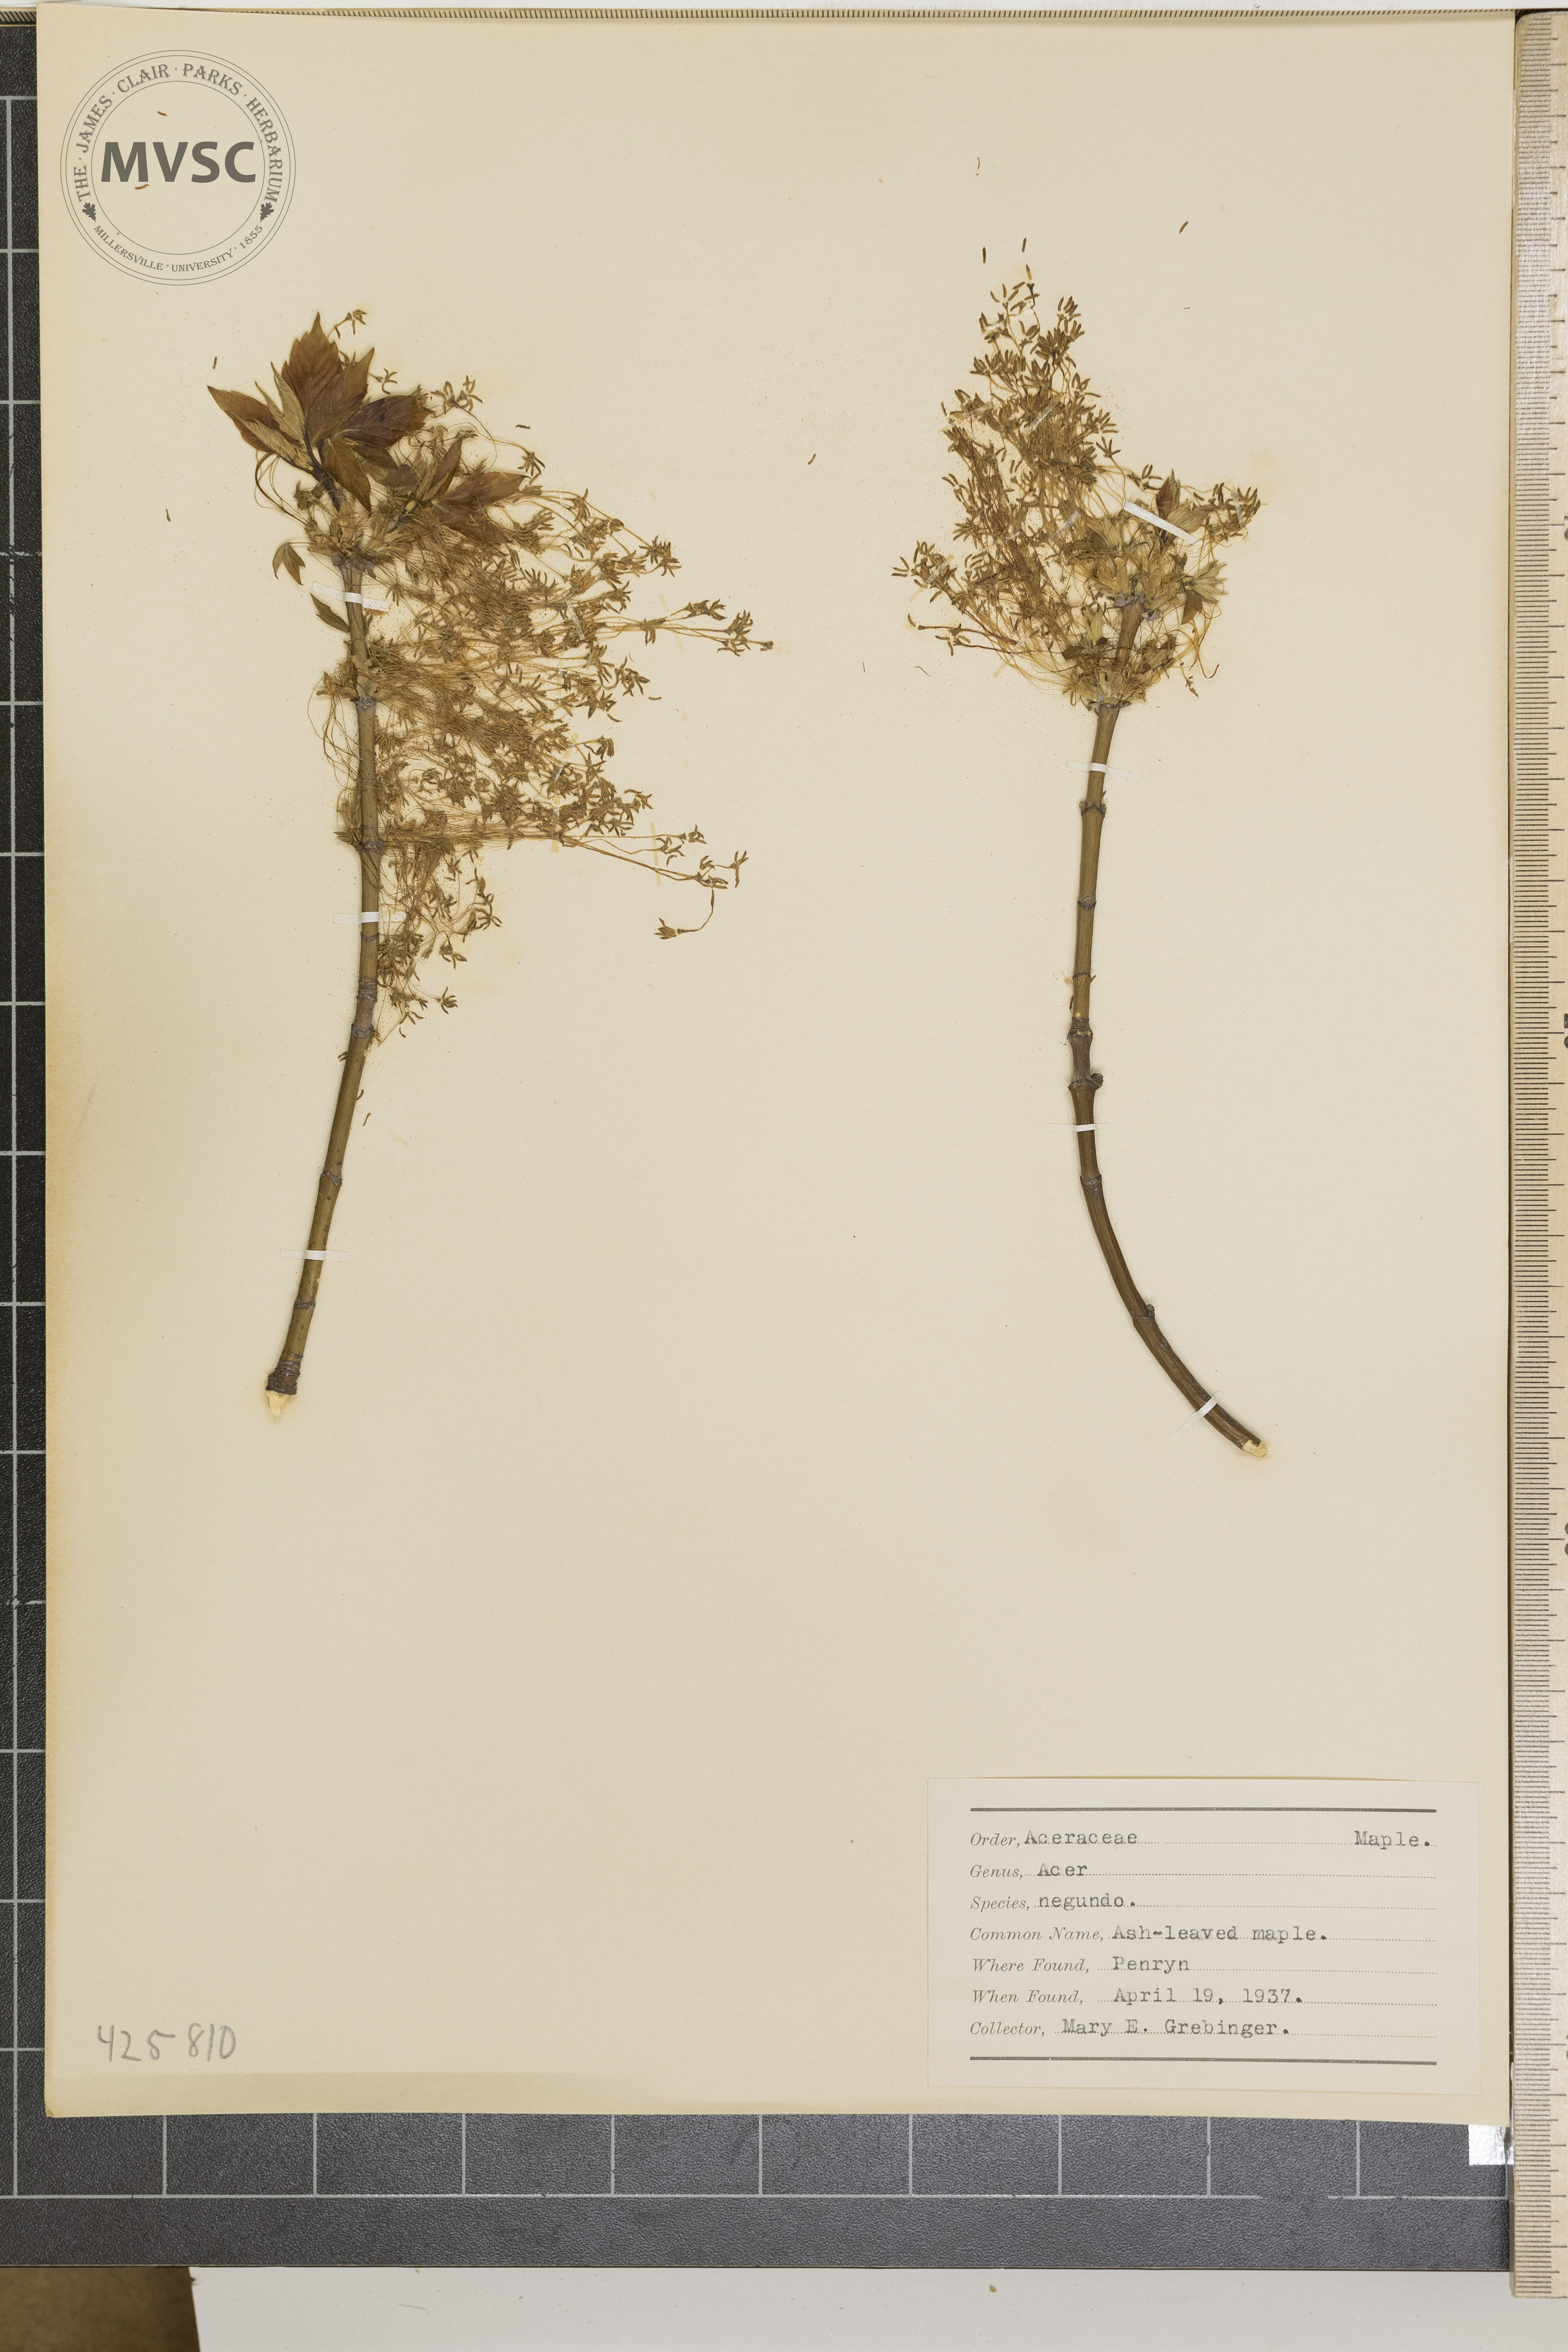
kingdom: Plantae
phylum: Tracheophyta
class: Magnoliopsida
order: Sapindales
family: Sapindaceae
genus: Acer
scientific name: Acer negundo
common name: Ash-leaved maple
